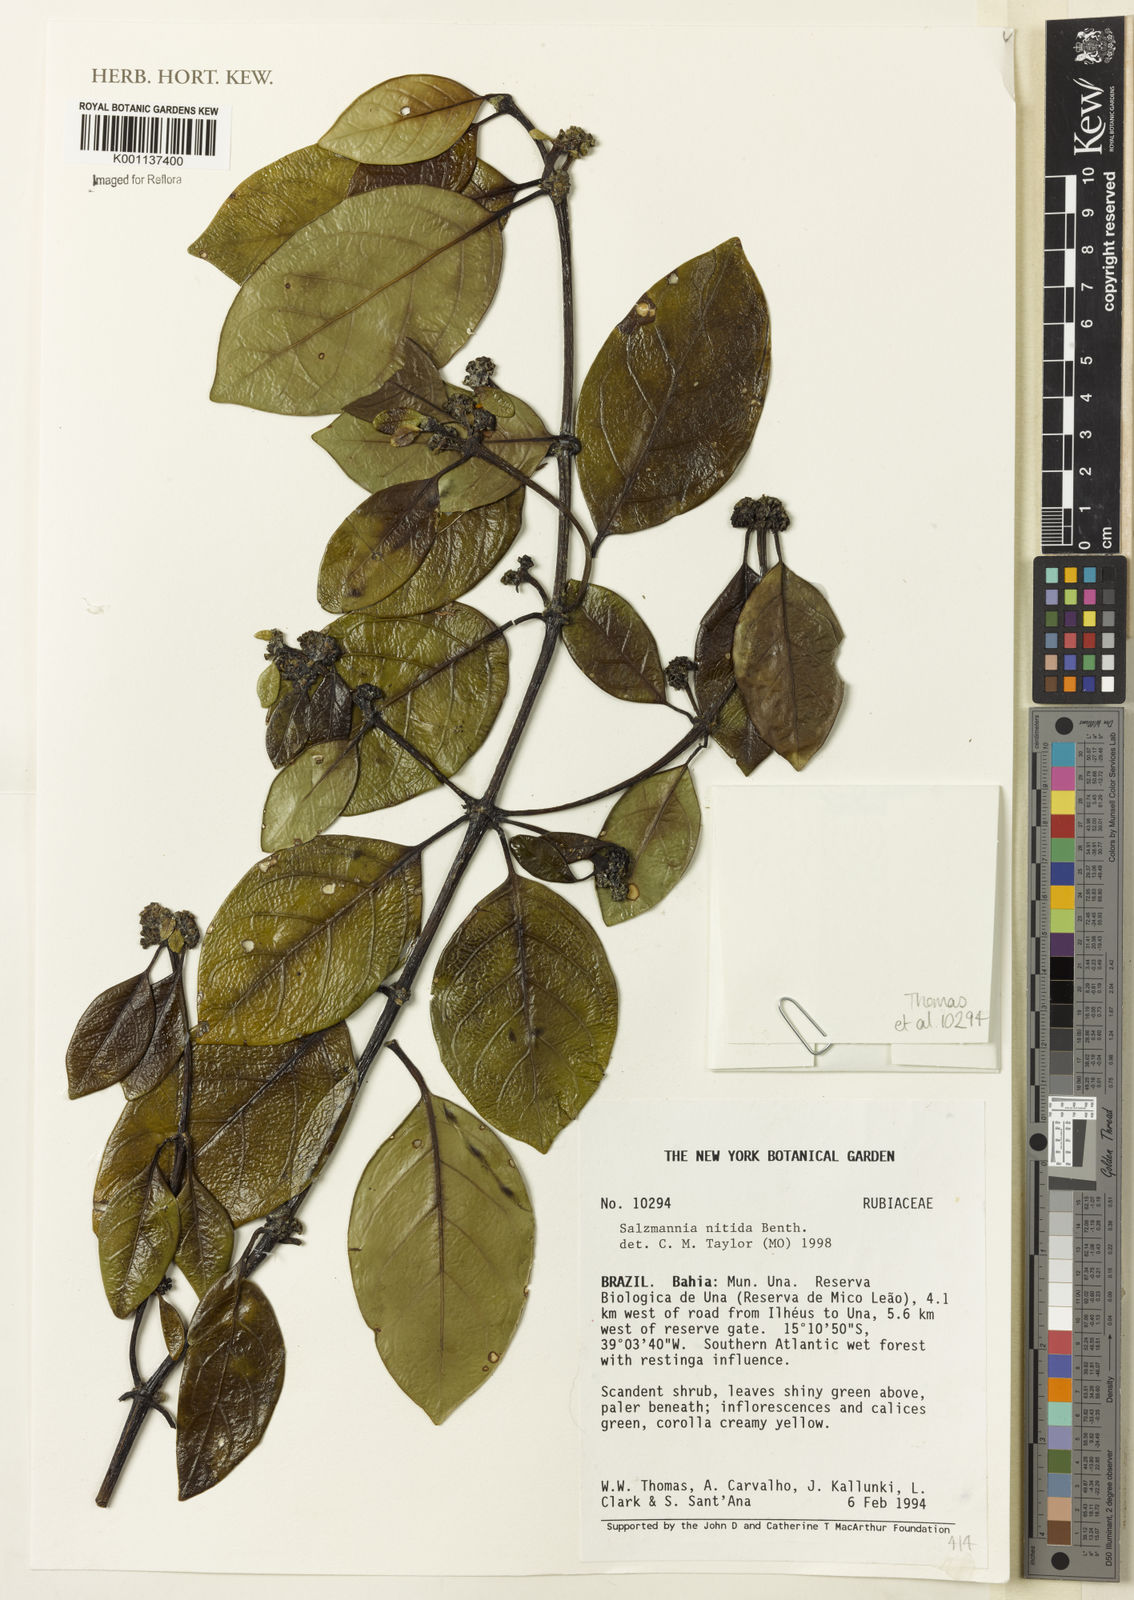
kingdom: Plantae
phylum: Tracheophyta
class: Magnoliopsida
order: Gentianales
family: Rubiaceae
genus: Salzmannia
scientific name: Salzmannia nitida
